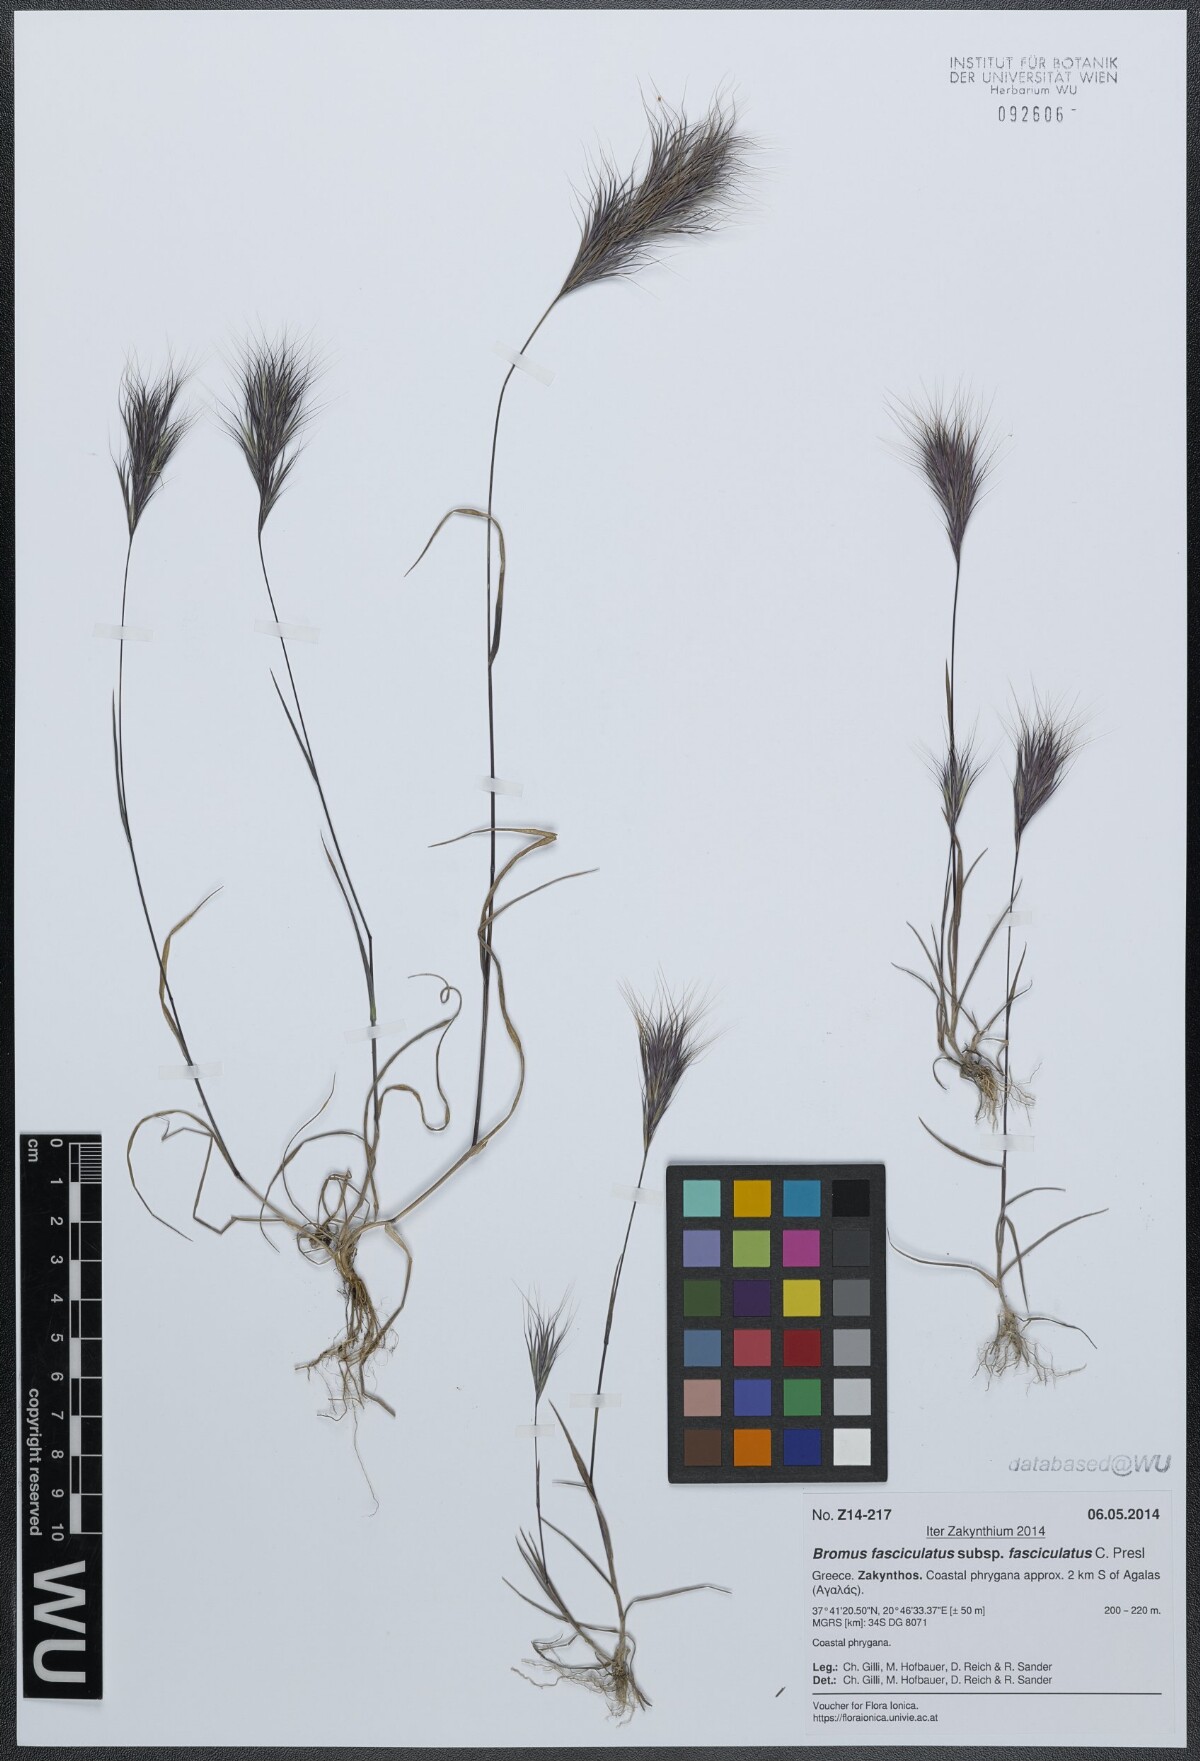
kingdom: Plantae
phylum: Tracheophyta
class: Liliopsida
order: Poales
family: Poaceae
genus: Bromus
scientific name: Bromus fasciculatus
